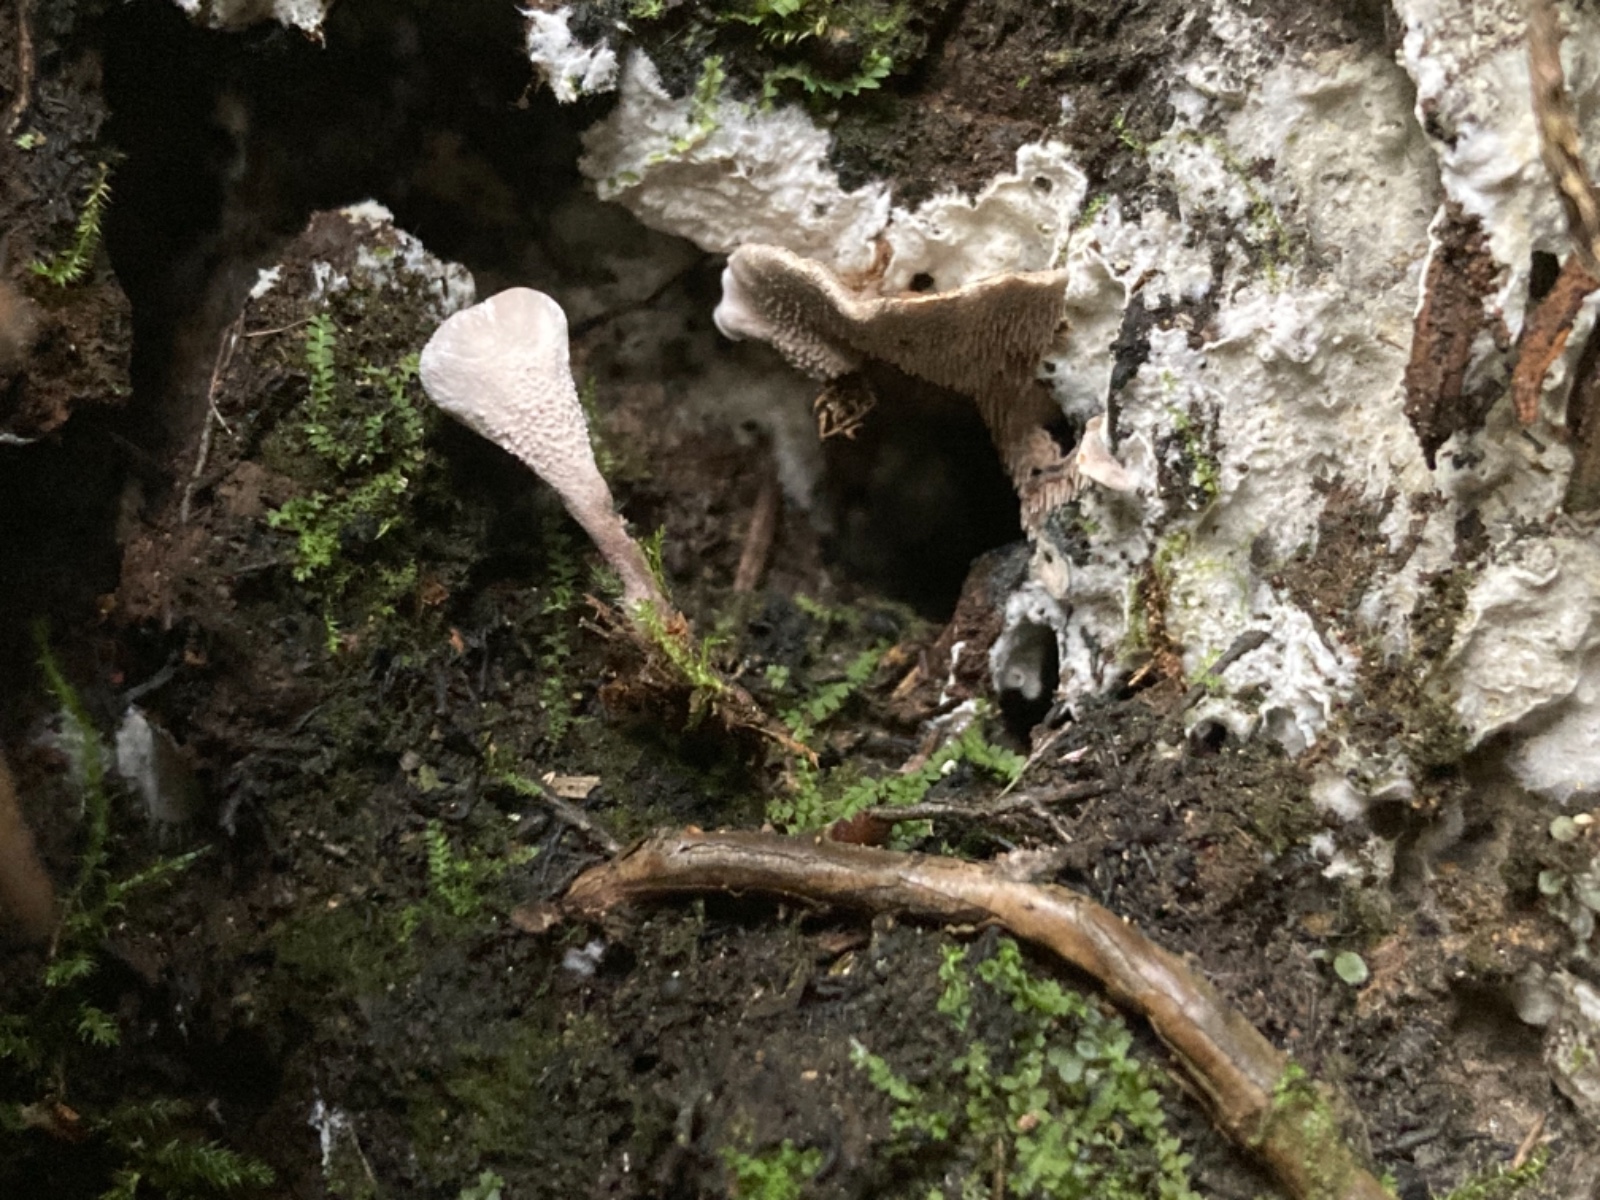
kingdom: Fungi
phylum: Basidiomycota
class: Agaricomycetes
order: Thelephorales
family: Thelephoraceae
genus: Phellodon
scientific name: Phellodon tomentosus
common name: vellugtende duftpigsvamp
